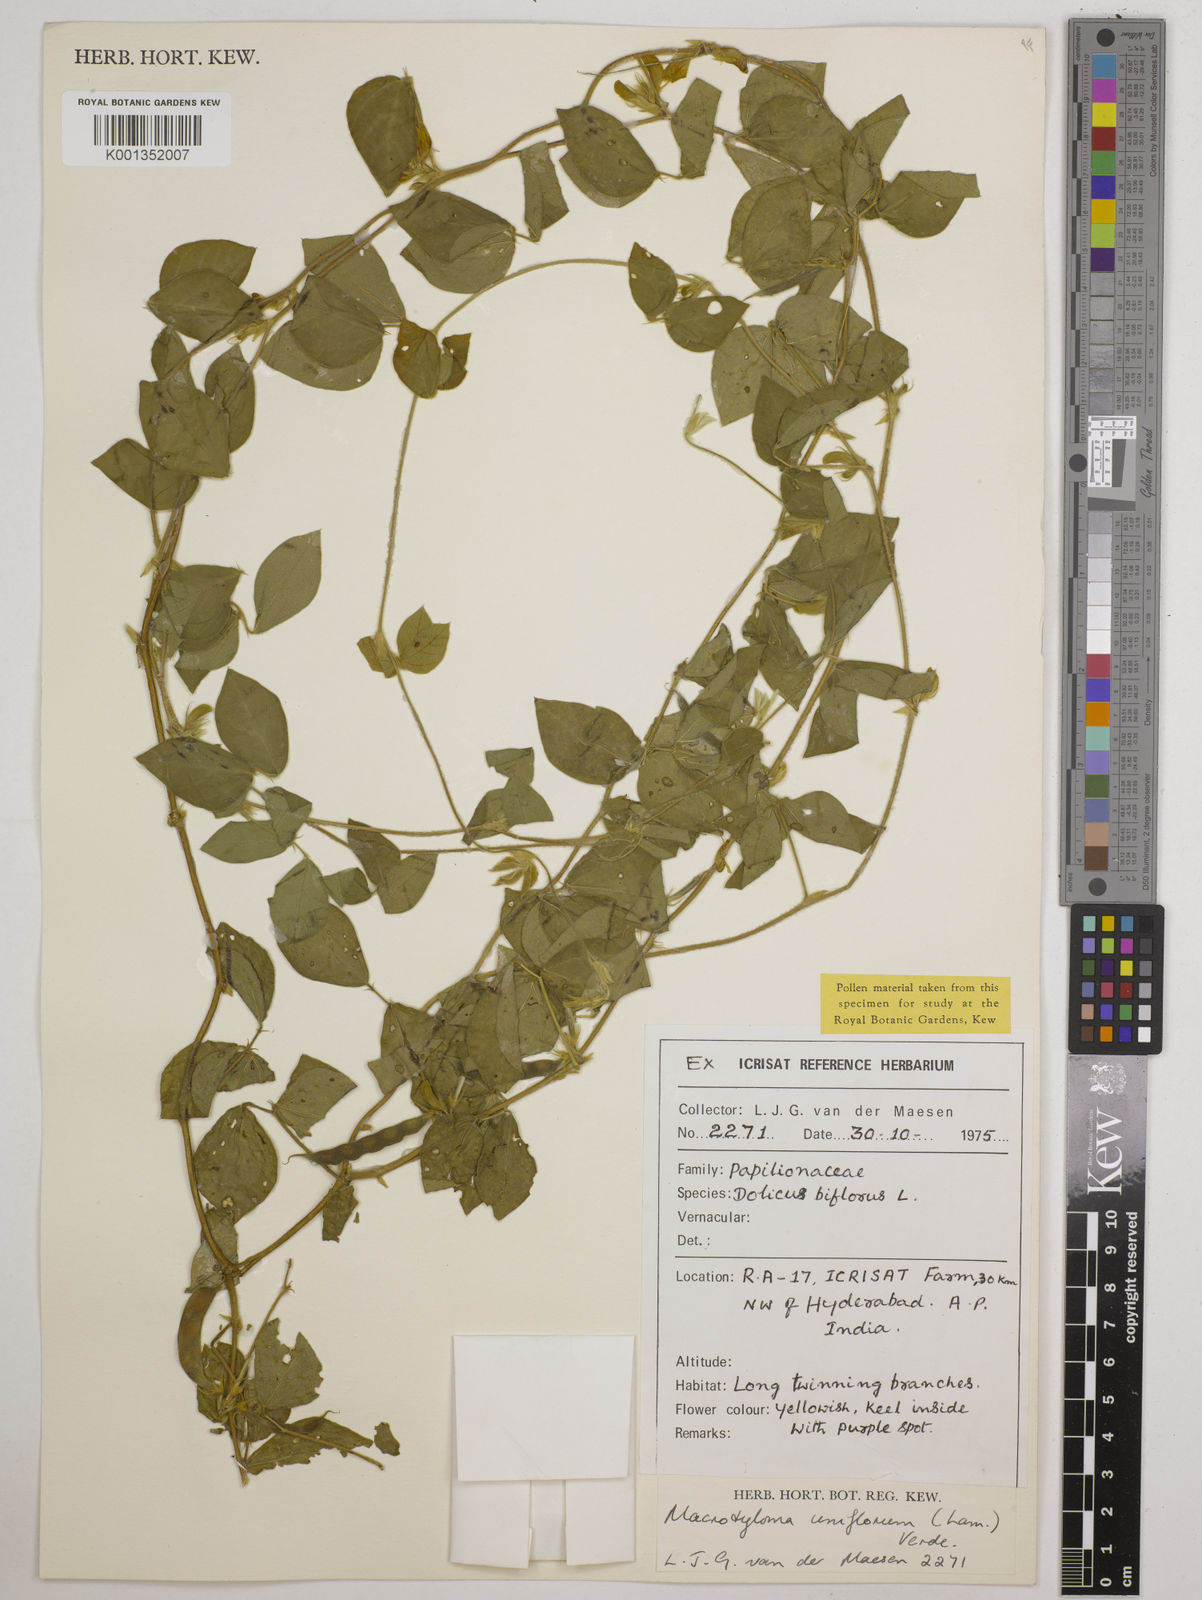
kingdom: Plantae
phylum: Tracheophyta
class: Magnoliopsida
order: Fabales
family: Fabaceae
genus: Macrotyloma
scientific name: Macrotyloma uniflorum
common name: Horse gram
